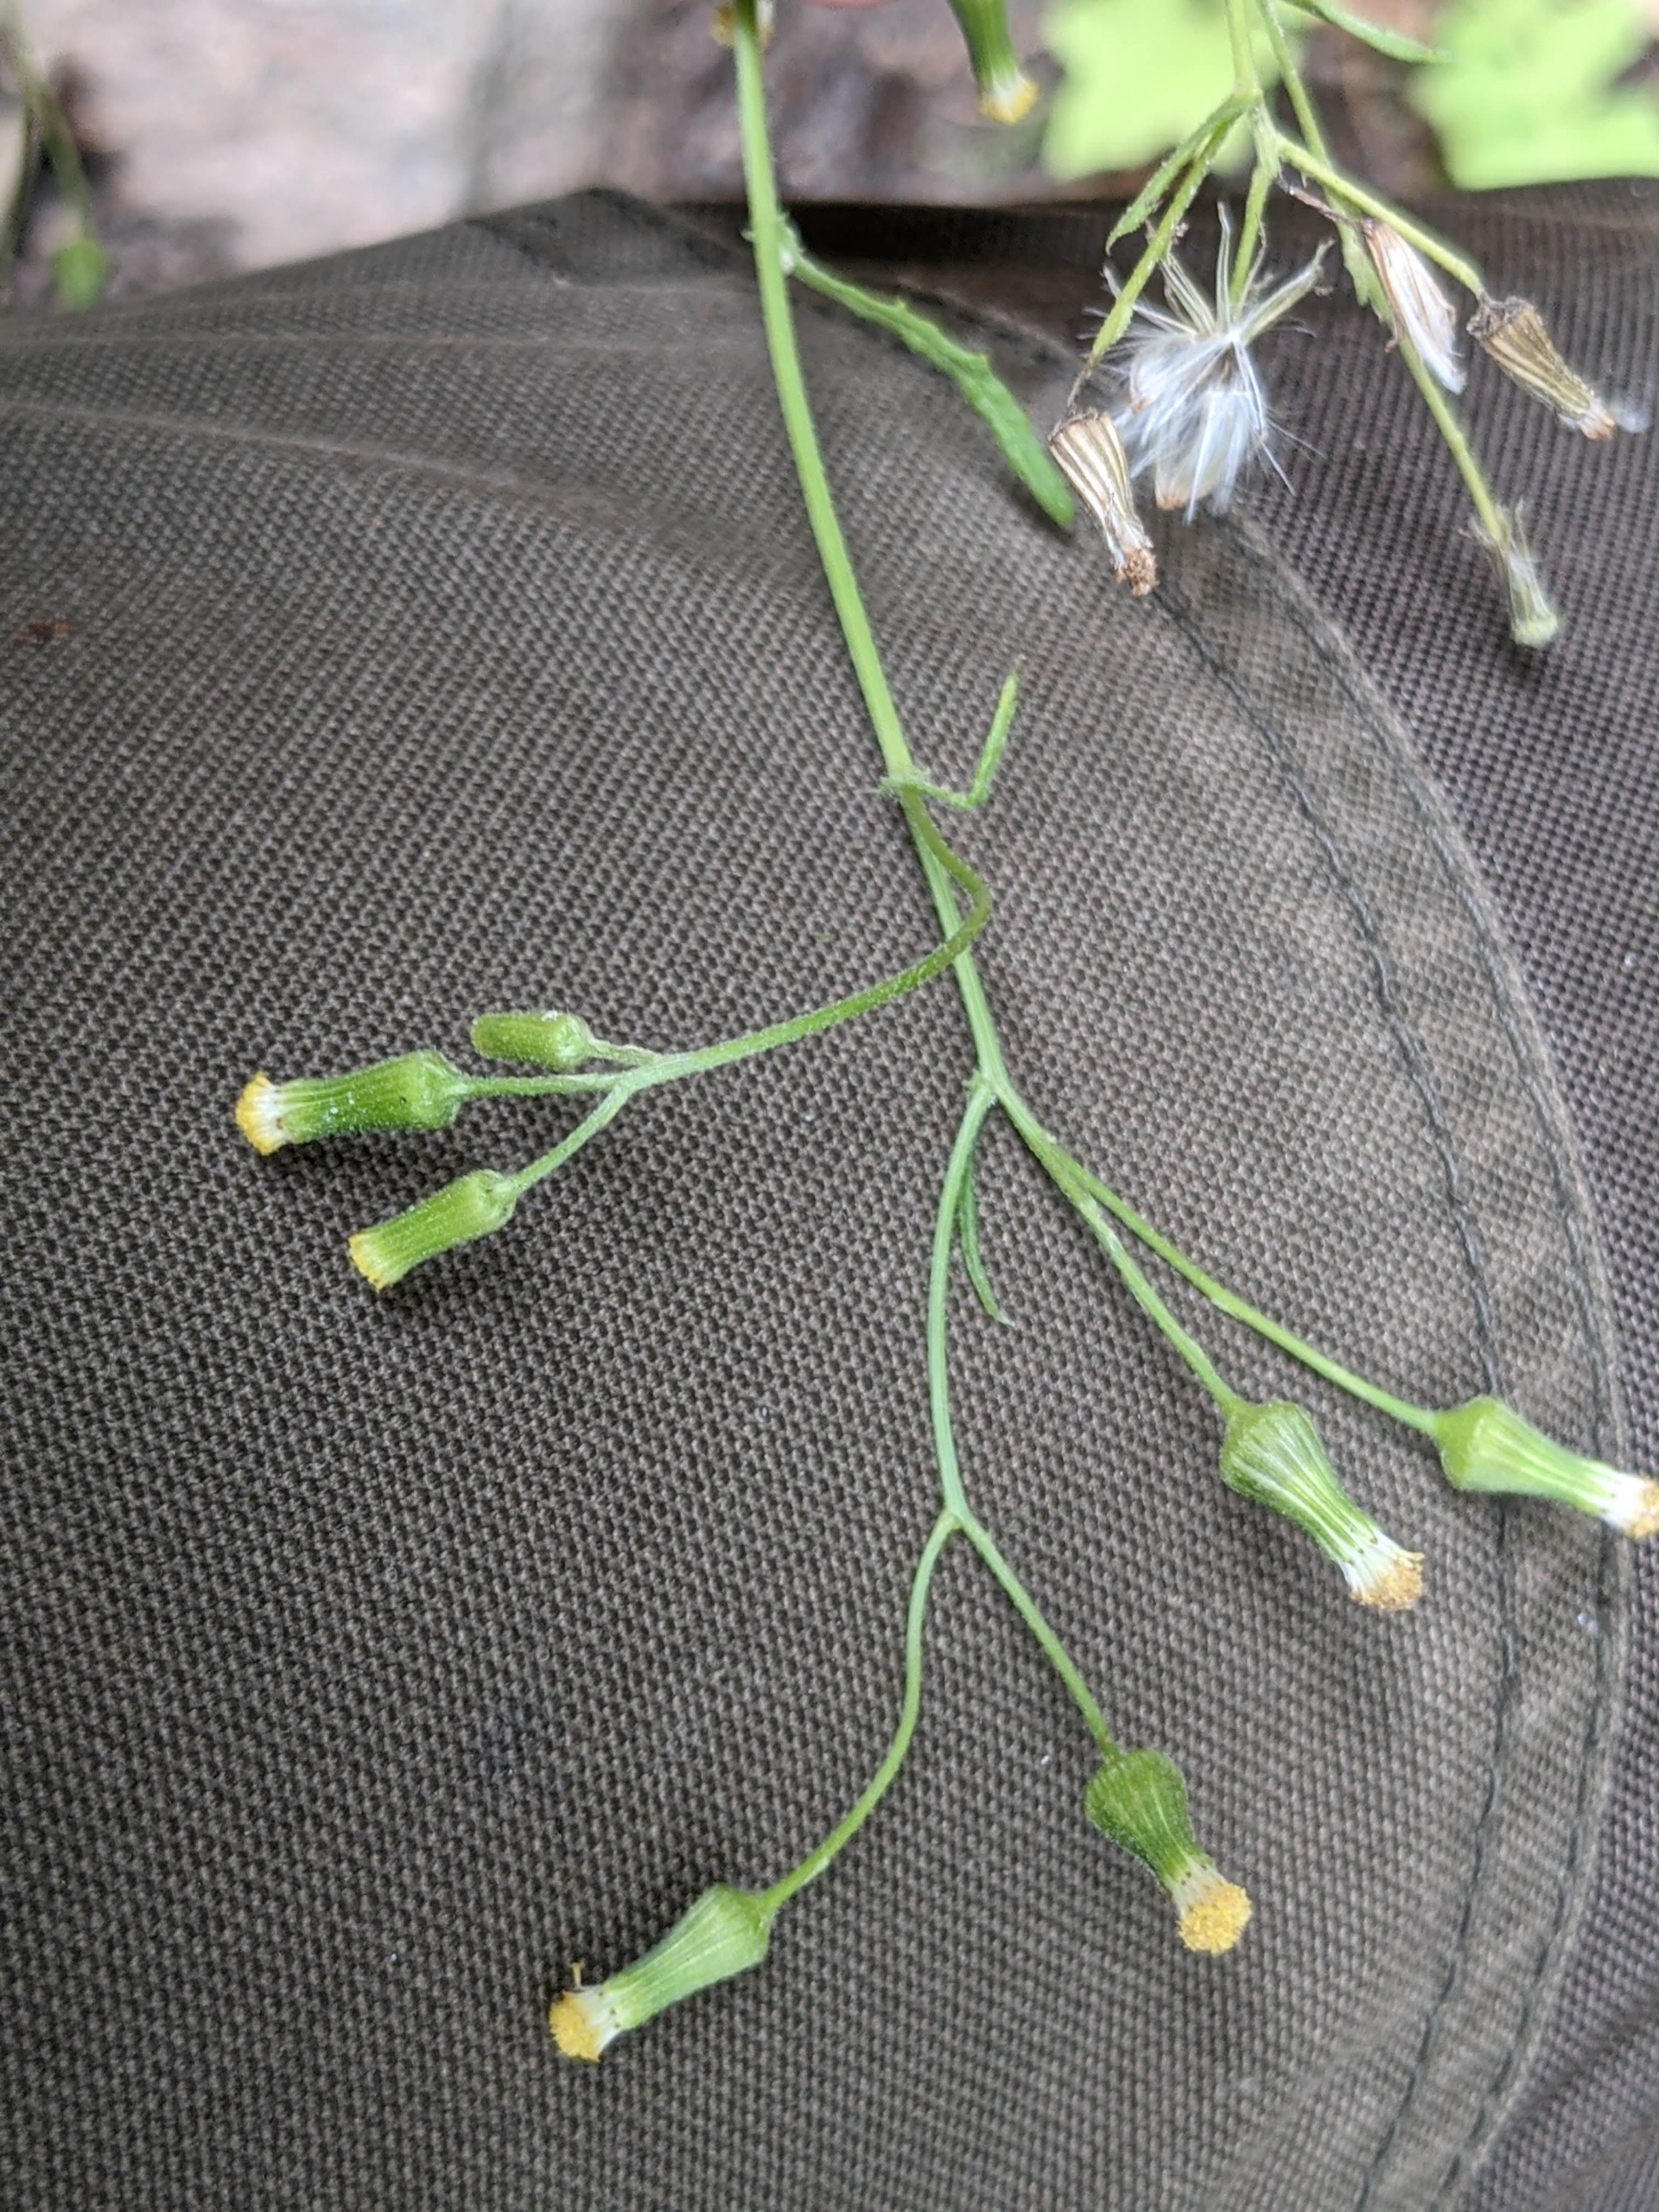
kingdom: Plantae
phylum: Tracheophyta
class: Magnoliopsida
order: Asterales
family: Asteraceae
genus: Senecio
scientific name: Senecio sylvaticus
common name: Skov-brandbæger
